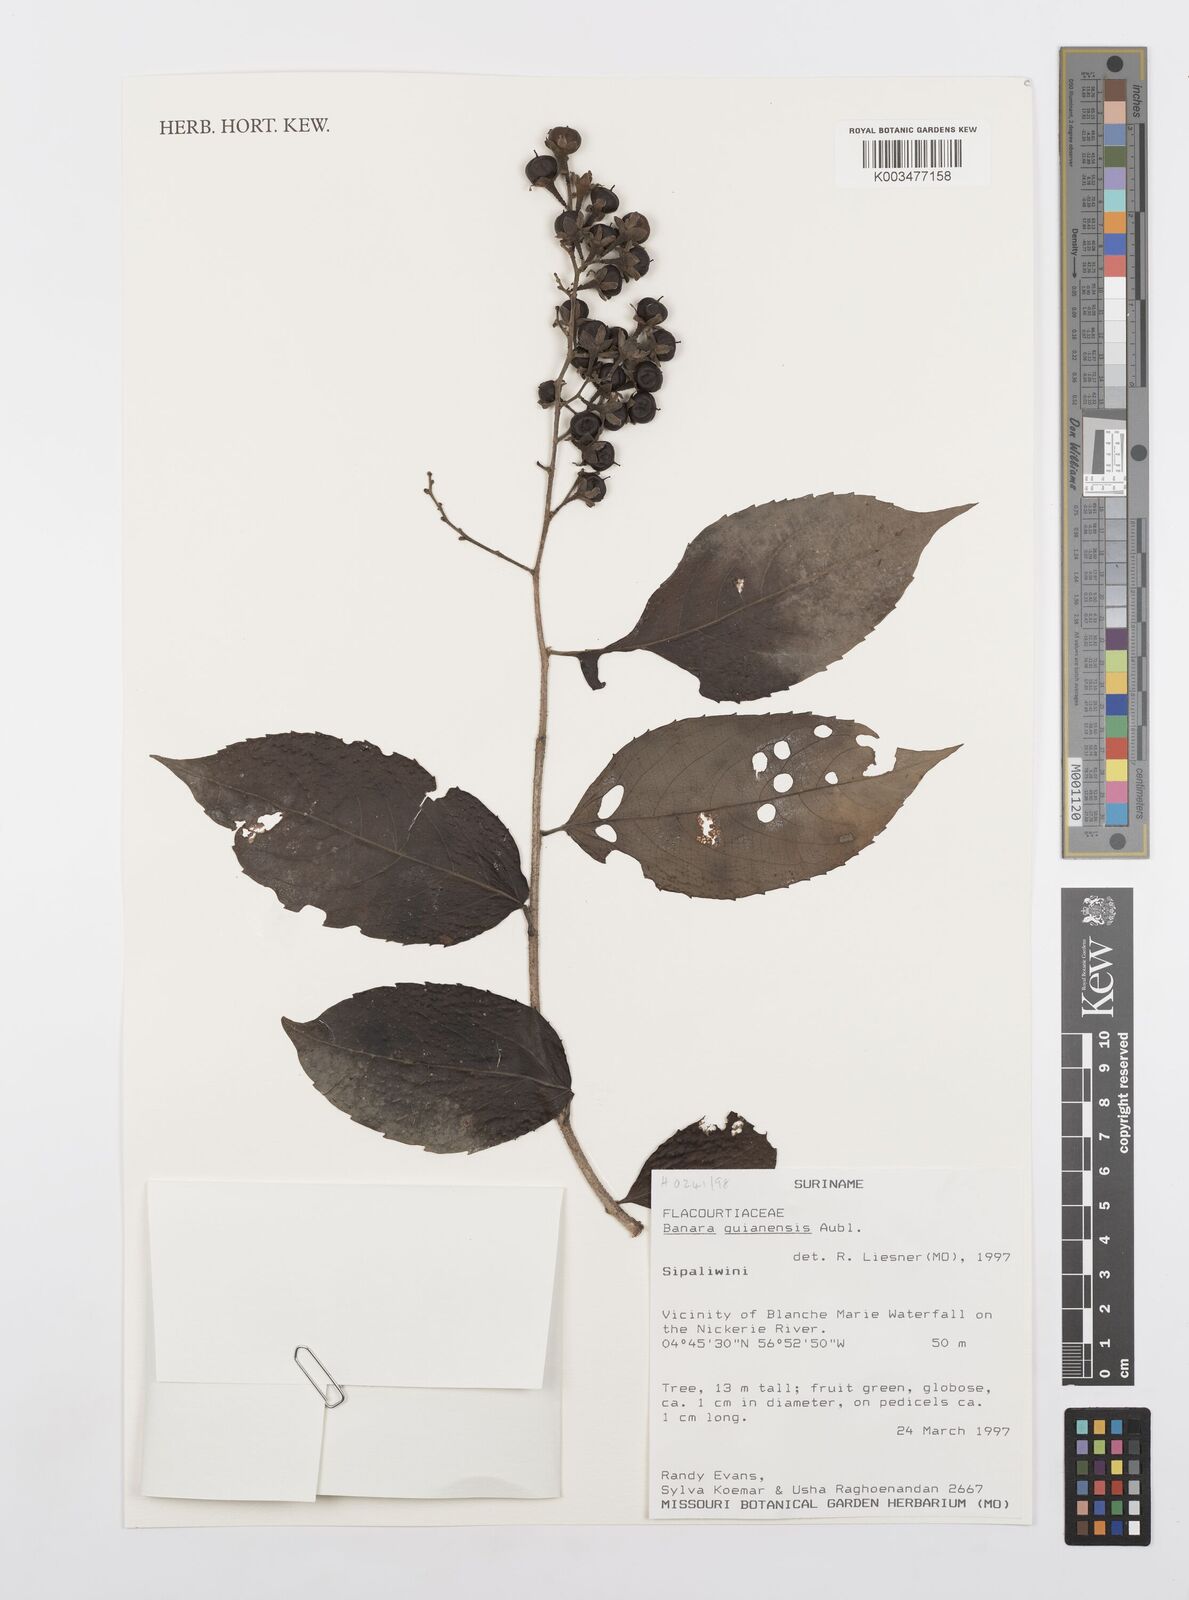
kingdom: Plantae
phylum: Tracheophyta
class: Magnoliopsida
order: Malpighiales
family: Salicaceae
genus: Banara
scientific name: Banara guianensis
